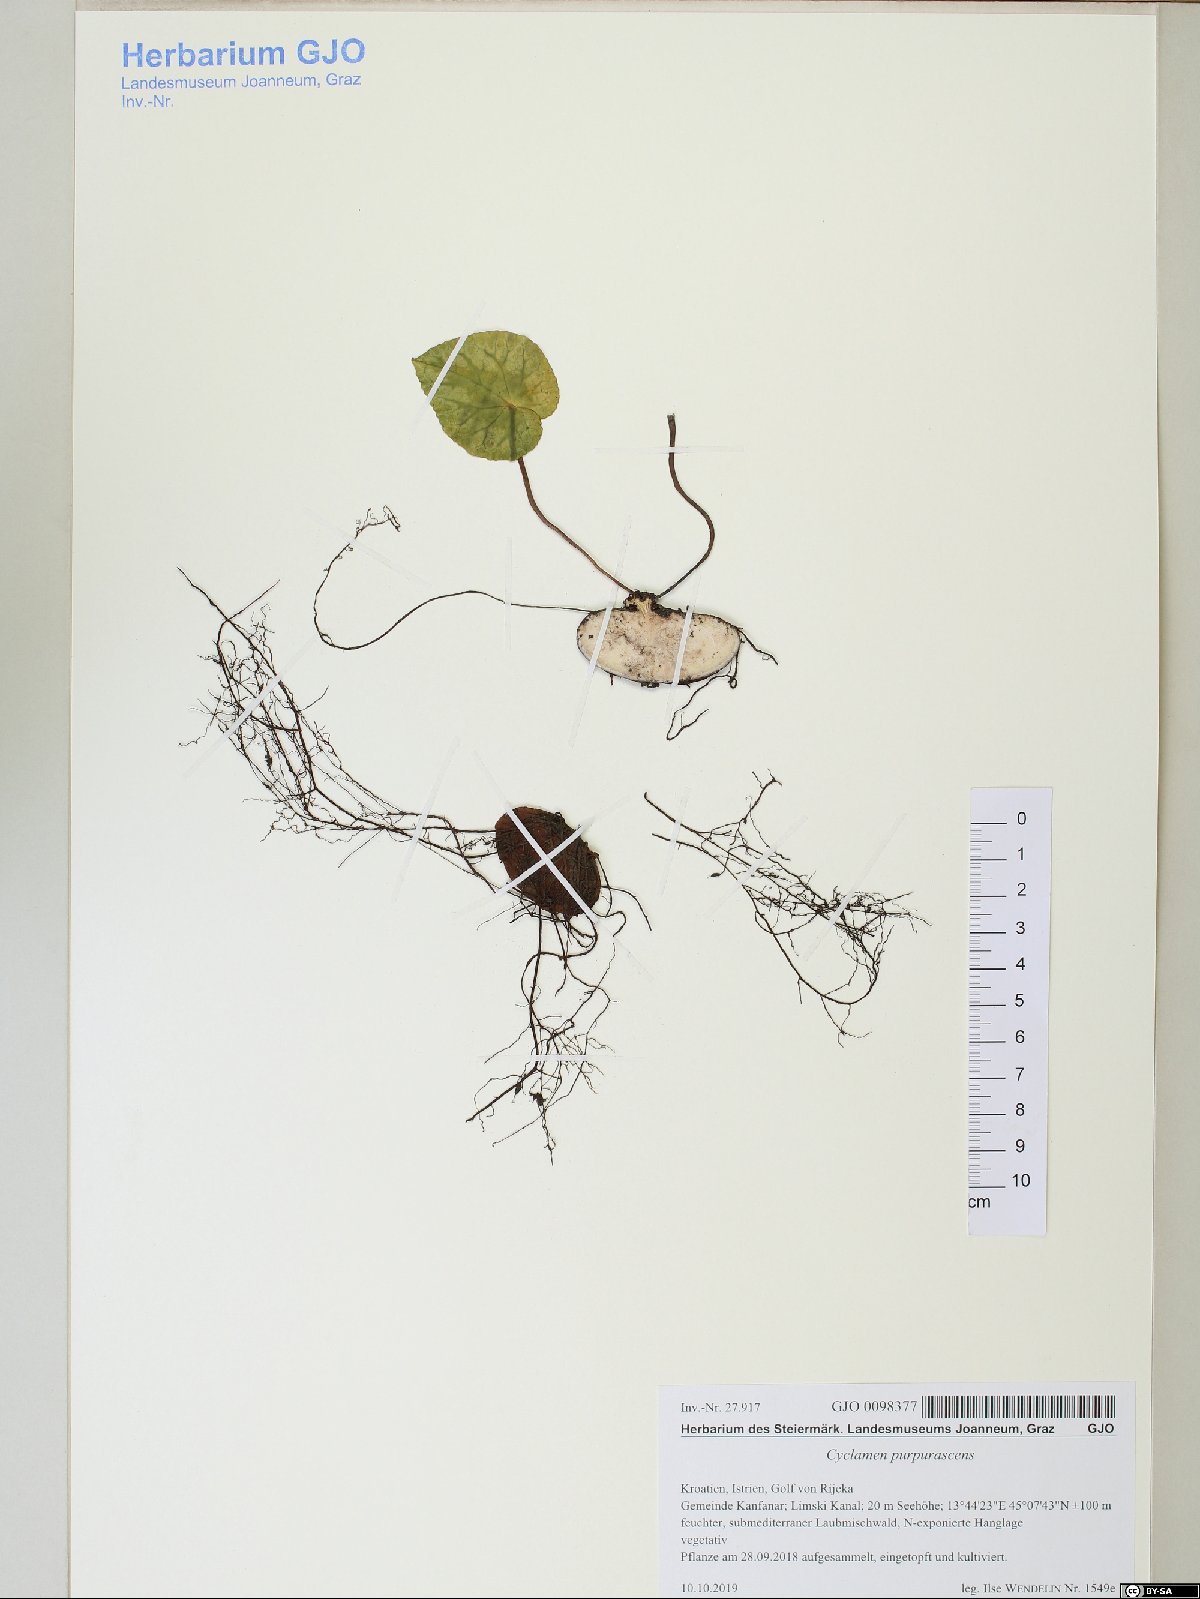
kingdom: Plantae
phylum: Tracheophyta
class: Magnoliopsida
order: Ericales
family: Primulaceae
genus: Cyclamen
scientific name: Cyclamen purpurascens
